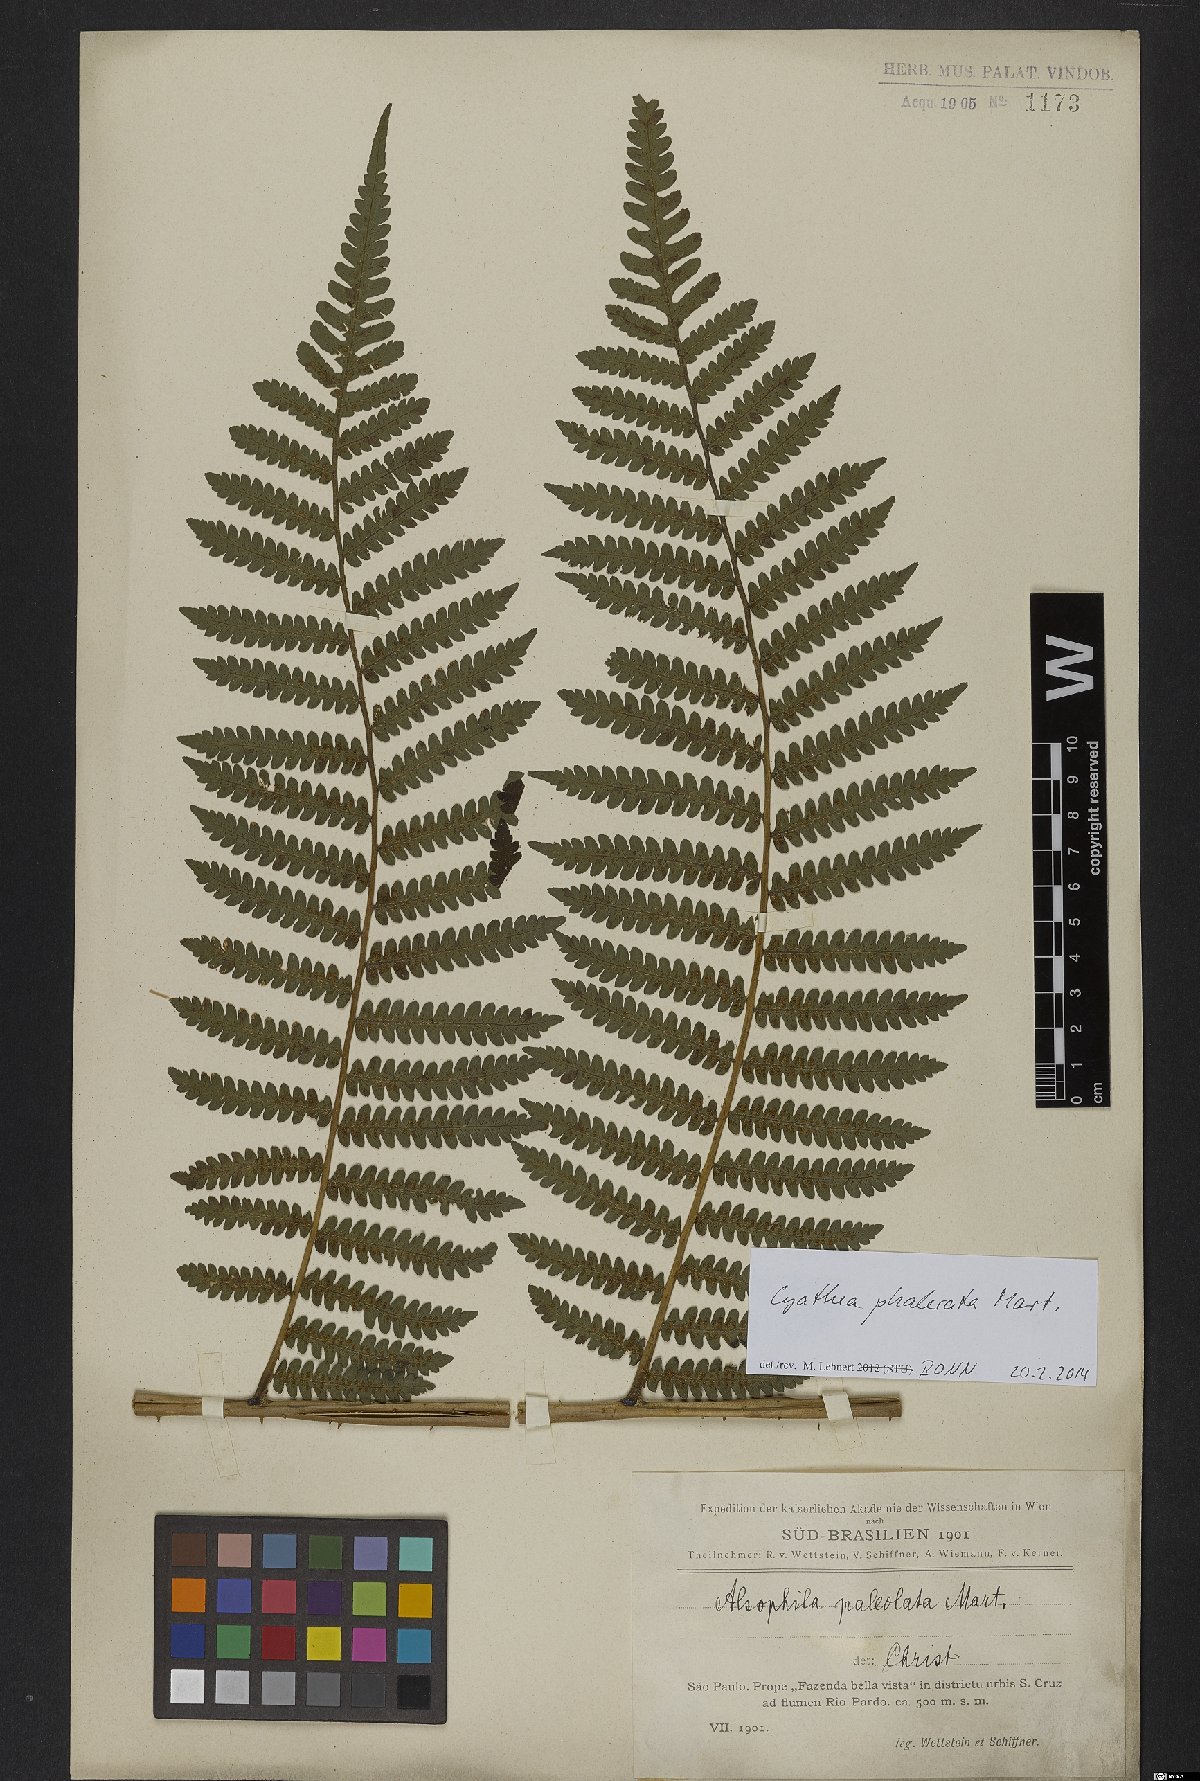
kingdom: Plantae
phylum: Tracheophyta
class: Polypodiopsida
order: Cyatheales
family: Cyatheaceae
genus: Cyathea
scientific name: Cyathea phalerata
